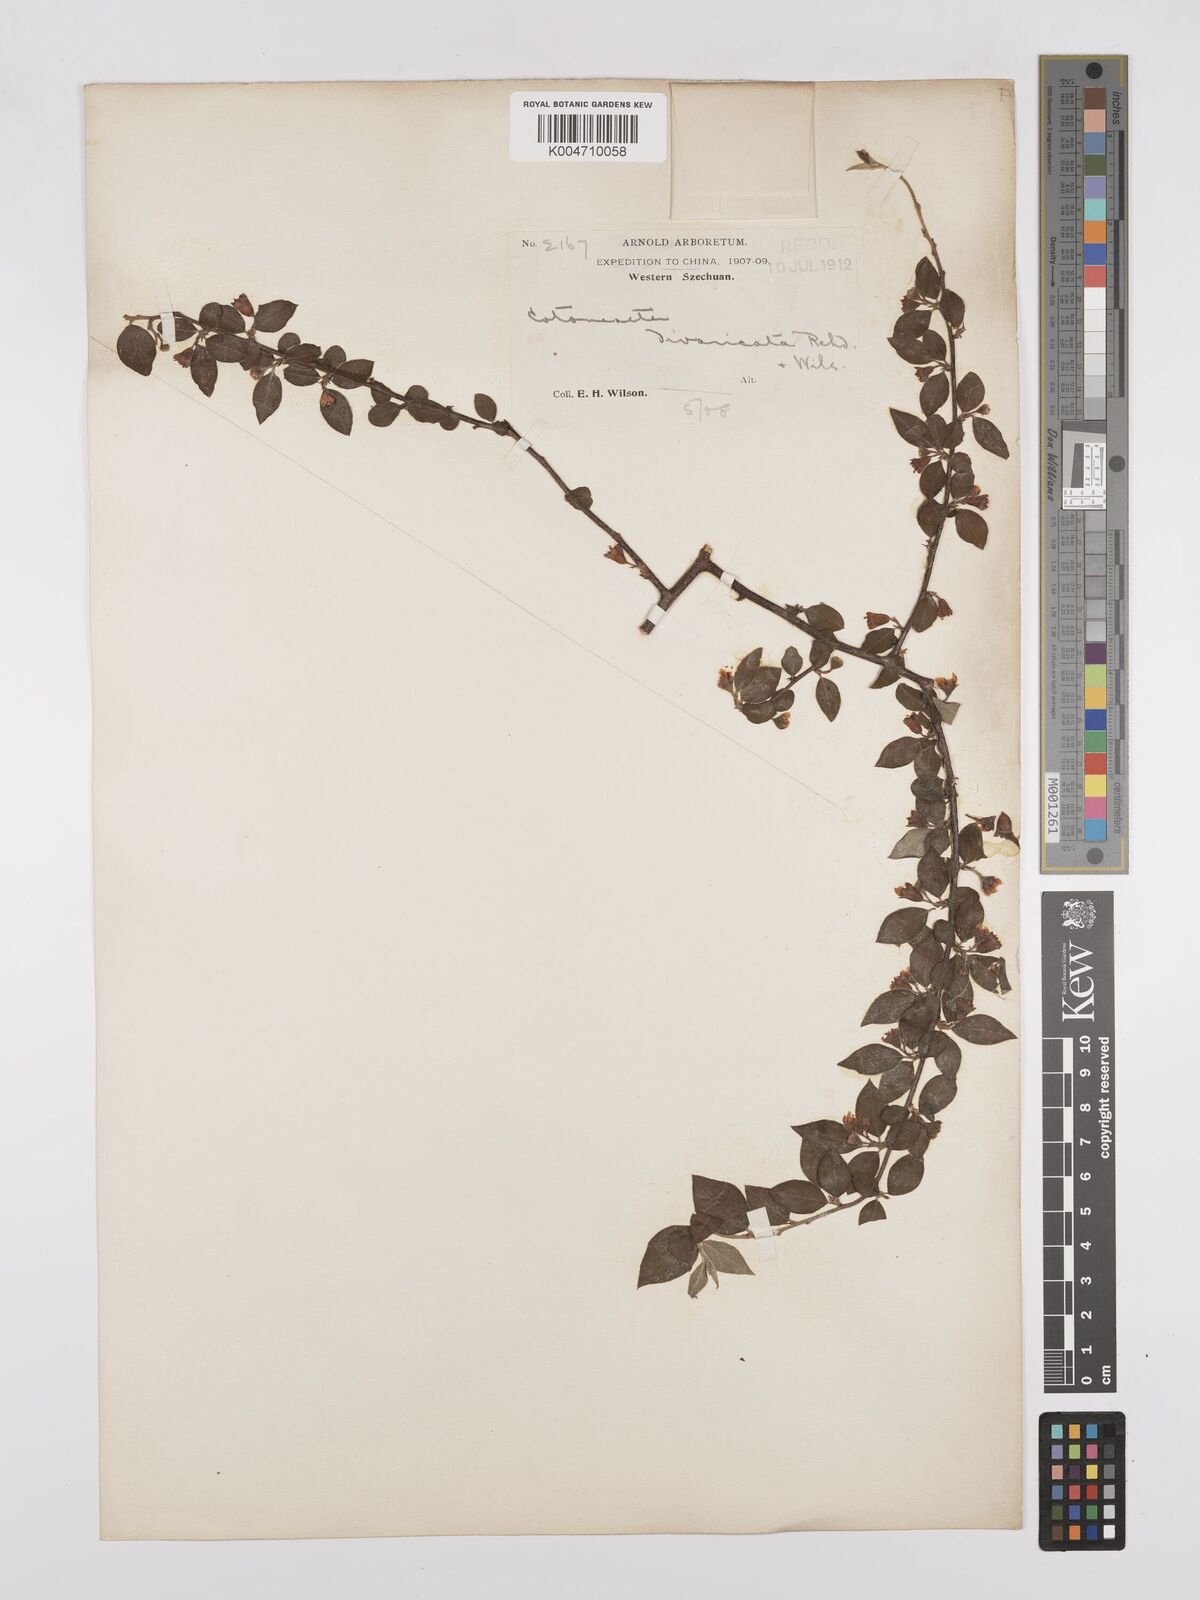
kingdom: Plantae
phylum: Tracheophyta
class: Magnoliopsida
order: Rosales
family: Rosaceae
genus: Cotoneaster
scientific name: Cotoneaster divaricatus
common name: Spreading cotoneaster
